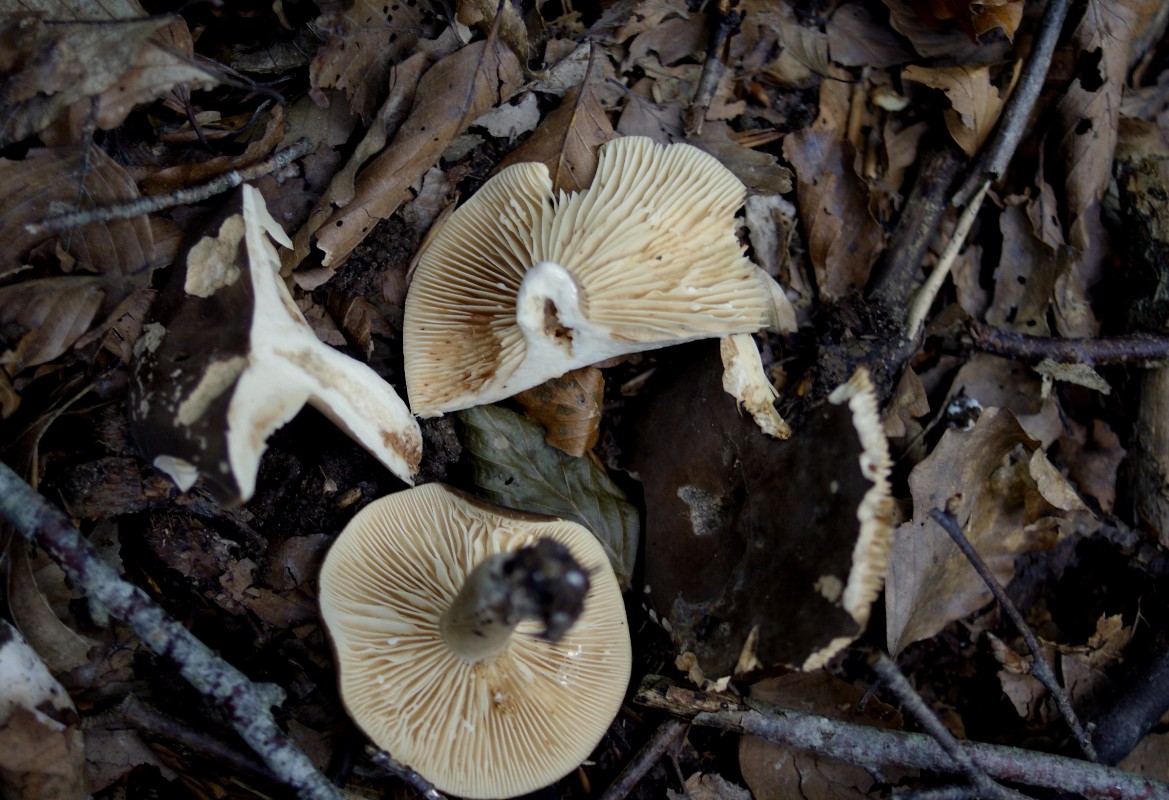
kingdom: Fungi
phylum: Basidiomycota
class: Agaricomycetes
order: Russulales
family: Russulaceae
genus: Lactarius
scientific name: Lactarius romagnesii
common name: fjernbladet mælkehat
